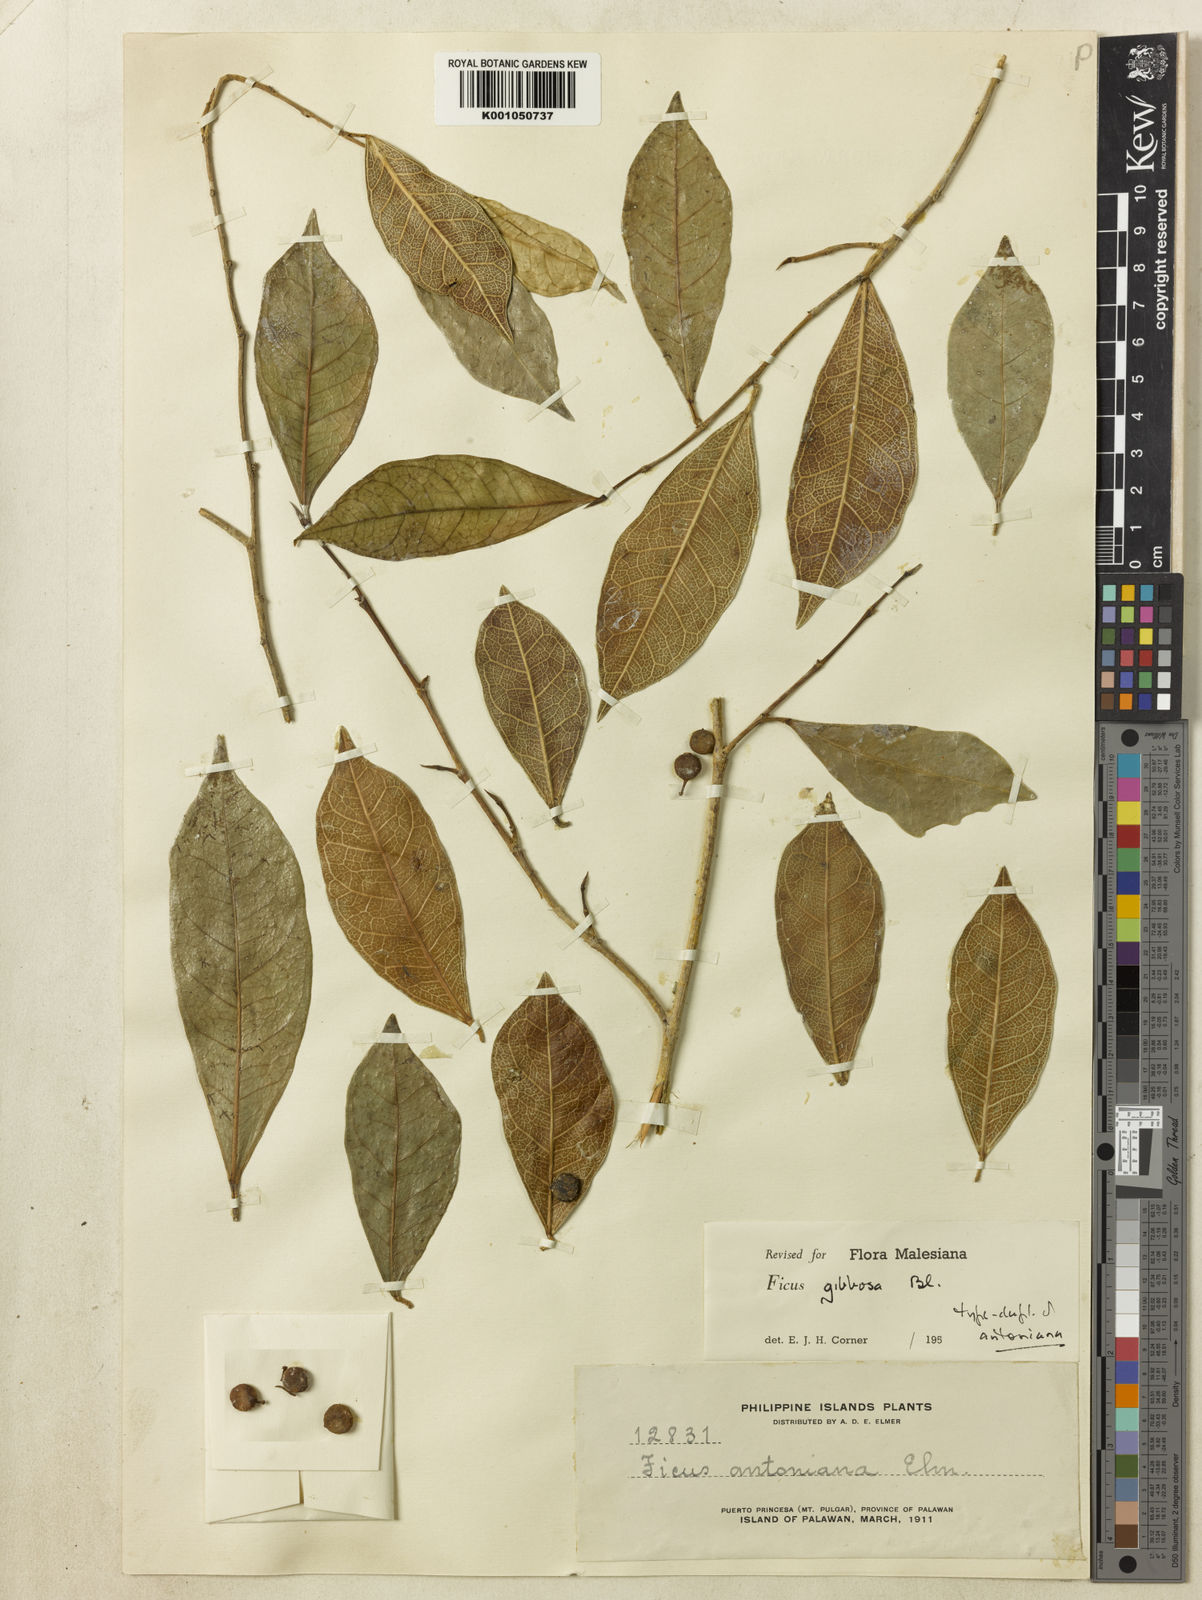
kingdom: Plantae
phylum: Tracheophyta
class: Magnoliopsida
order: Rosales
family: Moraceae
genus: Ficus
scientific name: Ficus tinctoria
